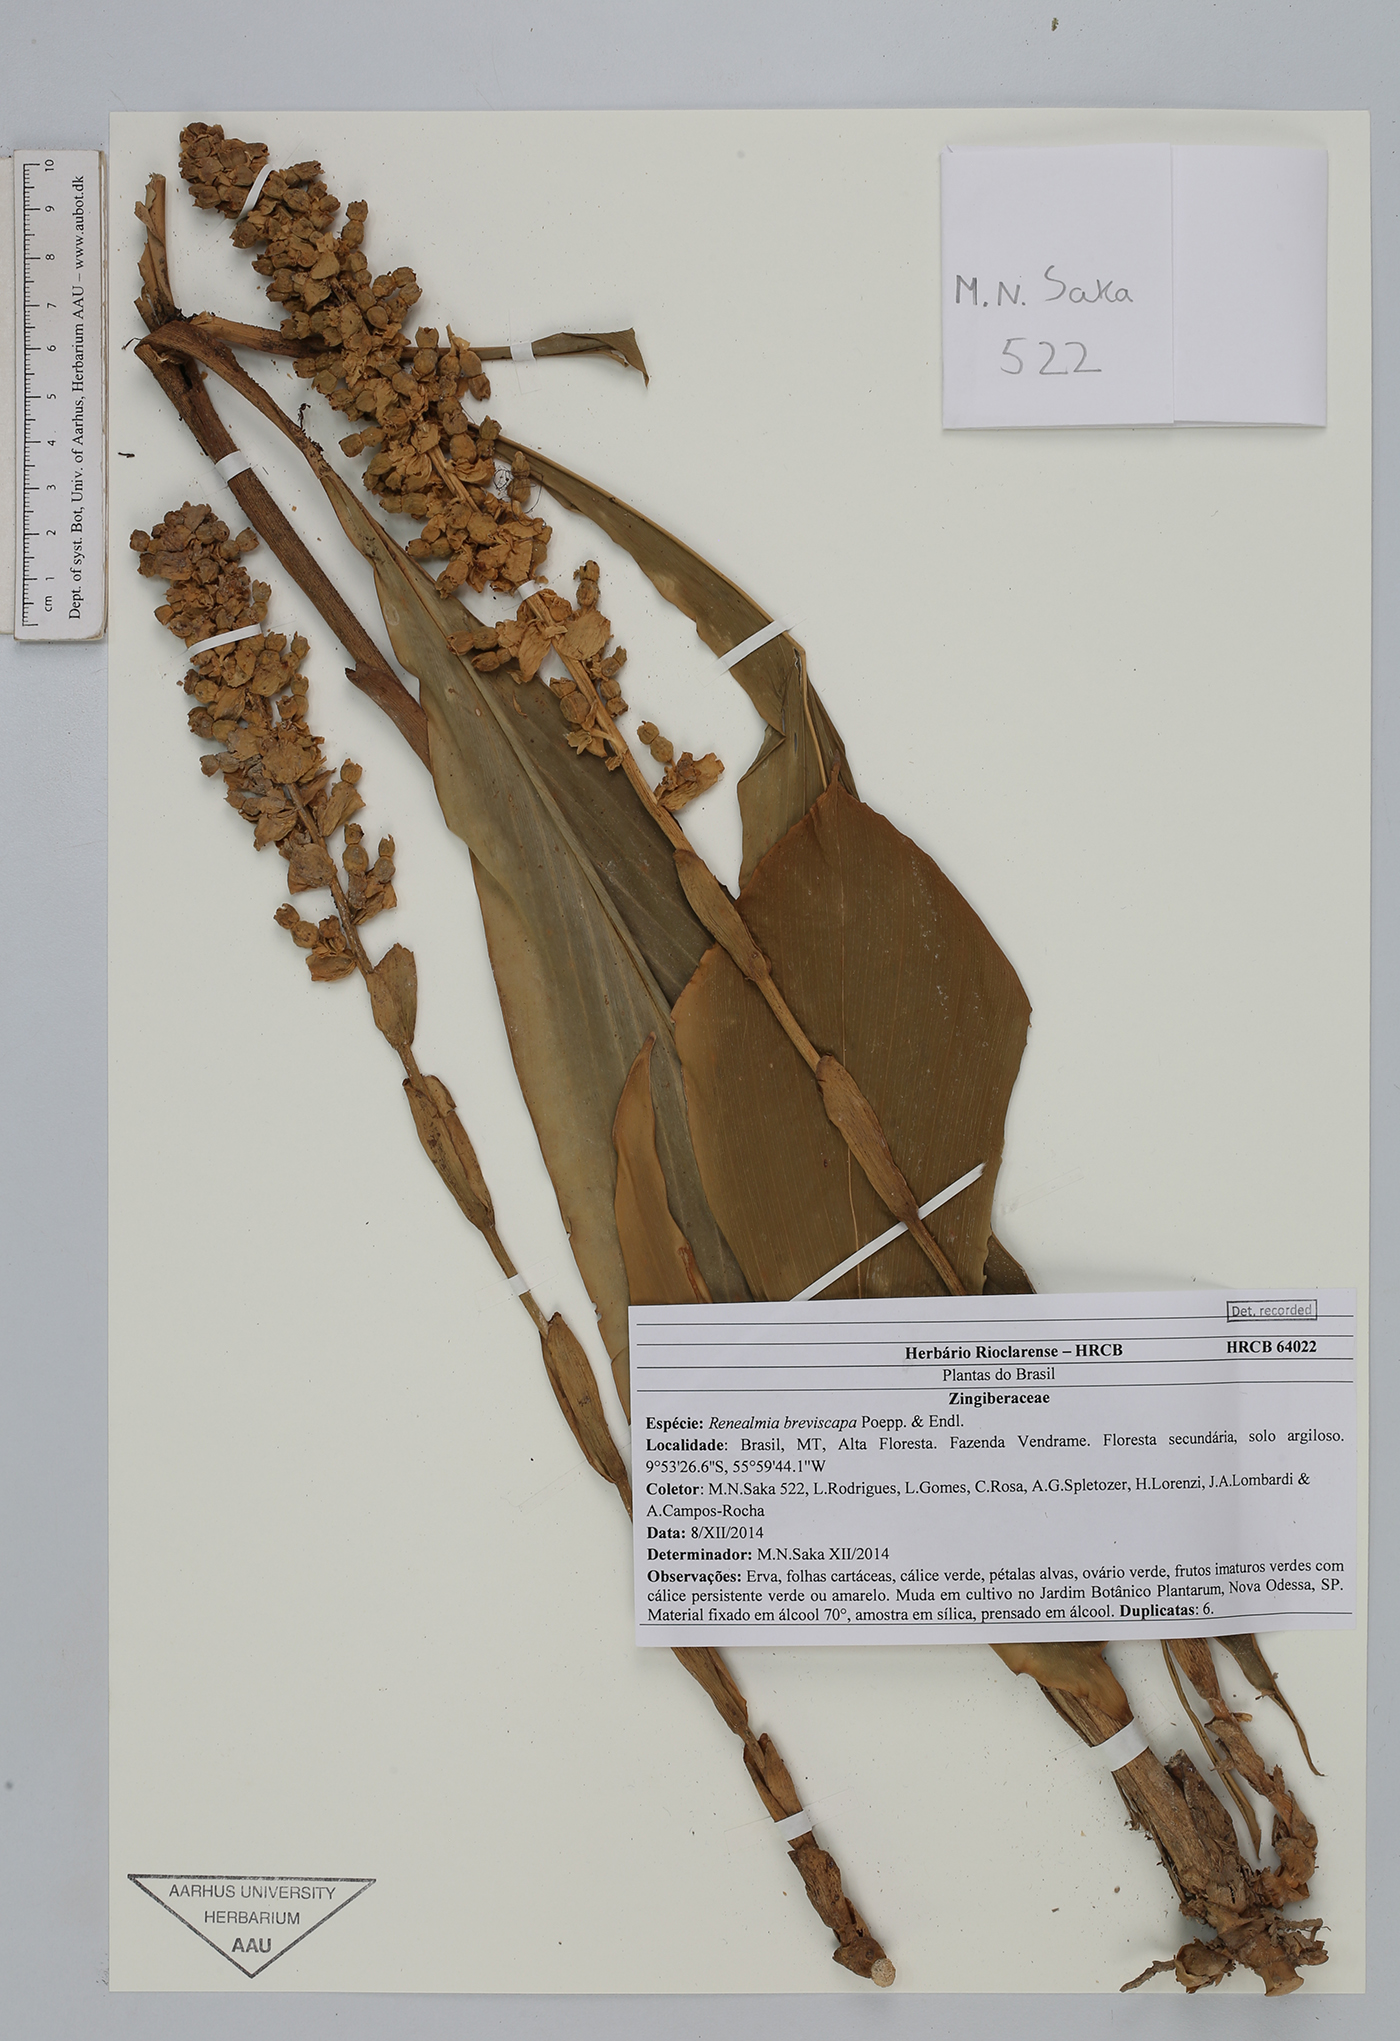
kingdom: Plantae
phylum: Tracheophyta
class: Liliopsida
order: Zingiberales
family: Zingiberaceae
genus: Renealmia
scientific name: Renealmia breviscapa
